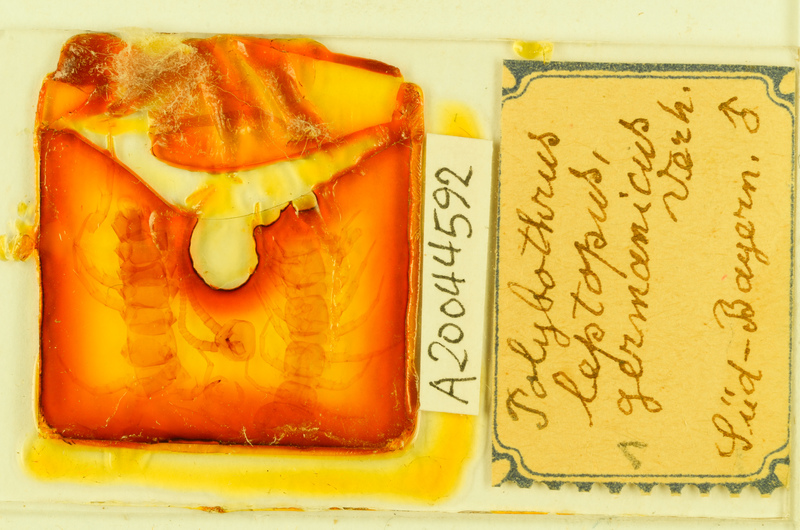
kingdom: Animalia
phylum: Arthropoda
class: Chilopoda
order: Lithobiomorpha
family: Lithobiidae
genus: Polybothrus
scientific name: Polybothrus leptopus
